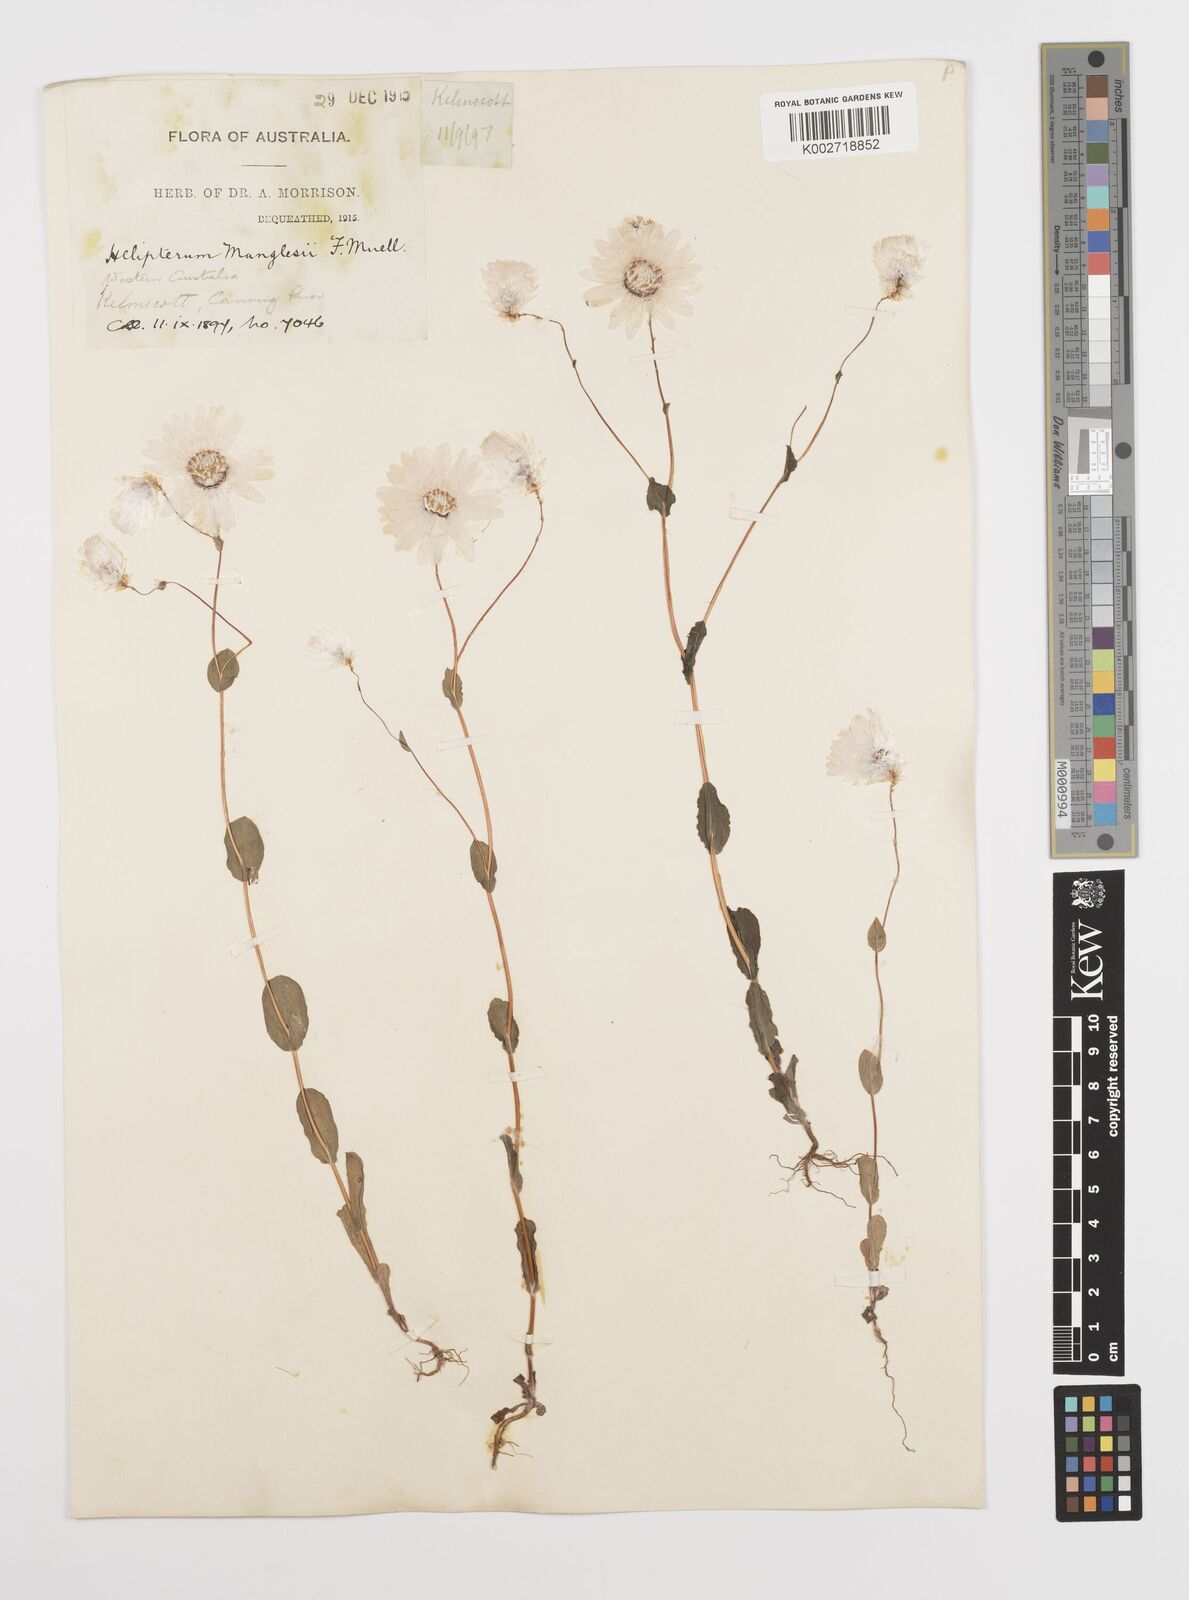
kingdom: Plantae
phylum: Tracheophyta
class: Magnoliopsida
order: Asterales
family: Asteraceae
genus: Rhodanthe
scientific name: Rhodanthe manglesii
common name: Pink sunray
